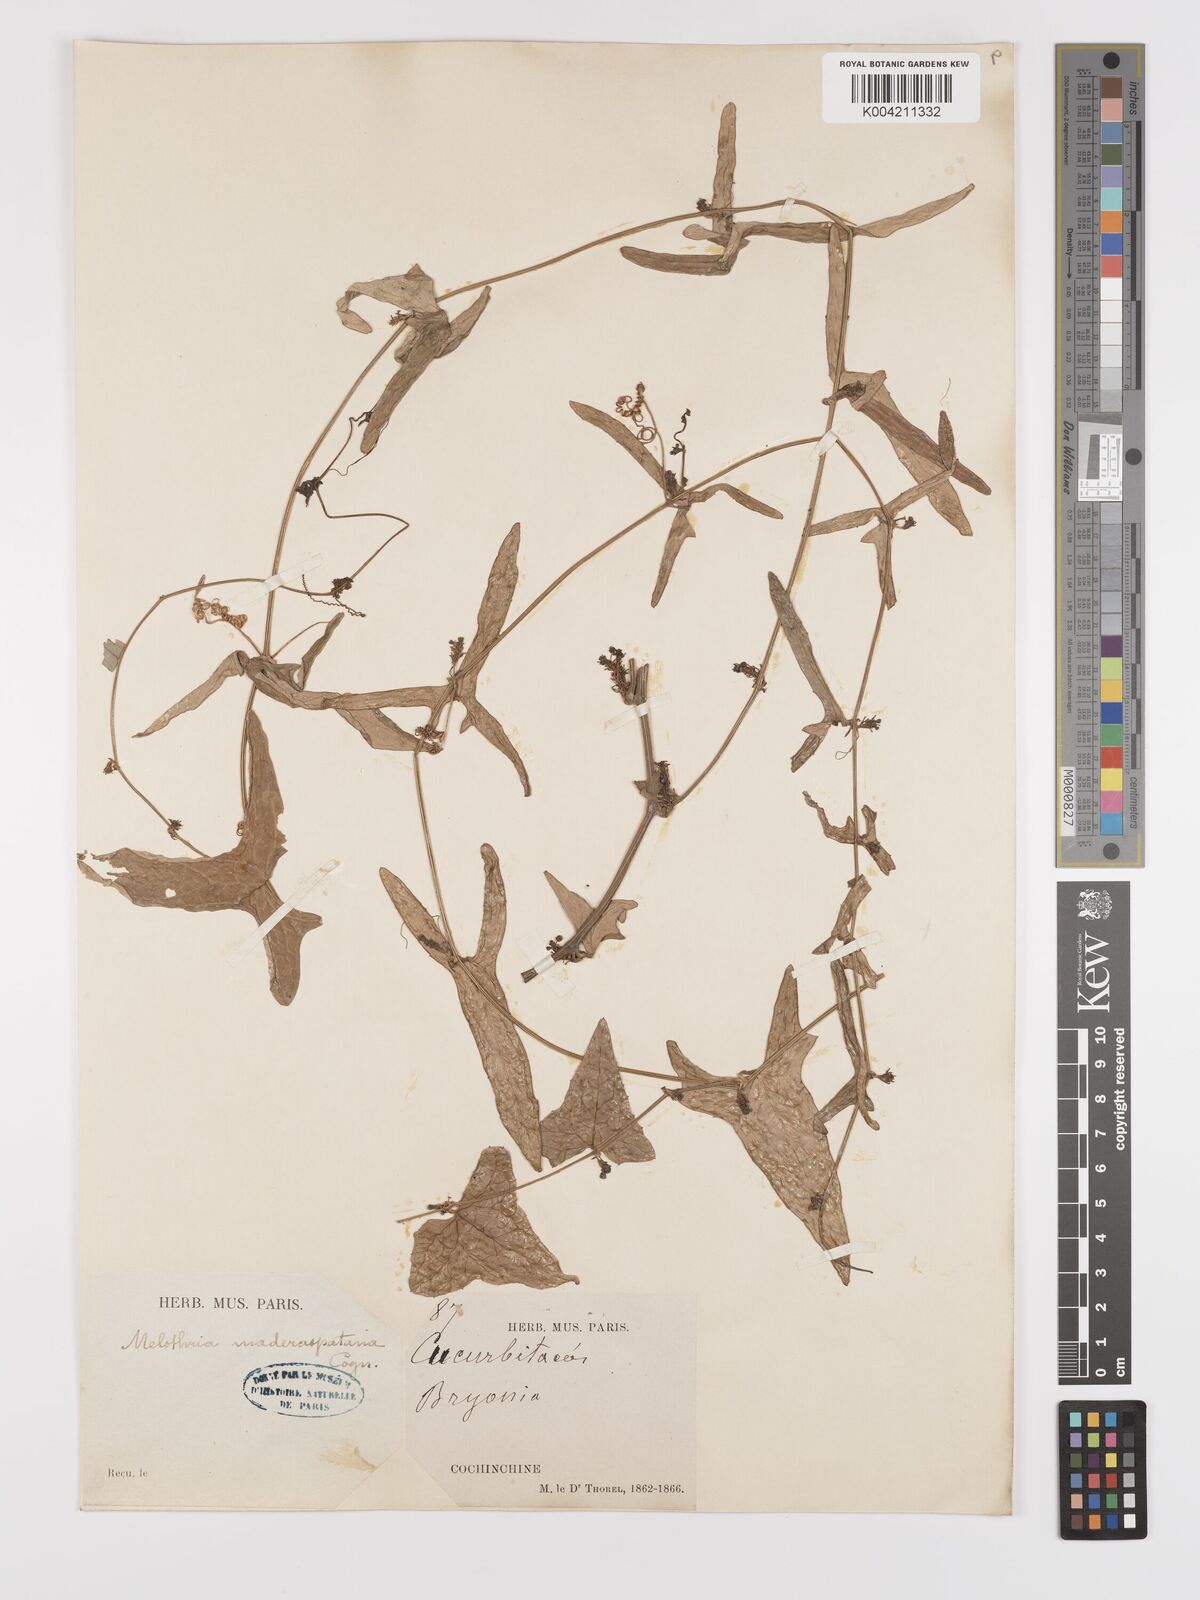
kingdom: Plantae
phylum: Tracheophyta
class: Magnoliopsida
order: Cucurbitales
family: Cucurbitaceae
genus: Solena
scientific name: Solena amplexicaulis
